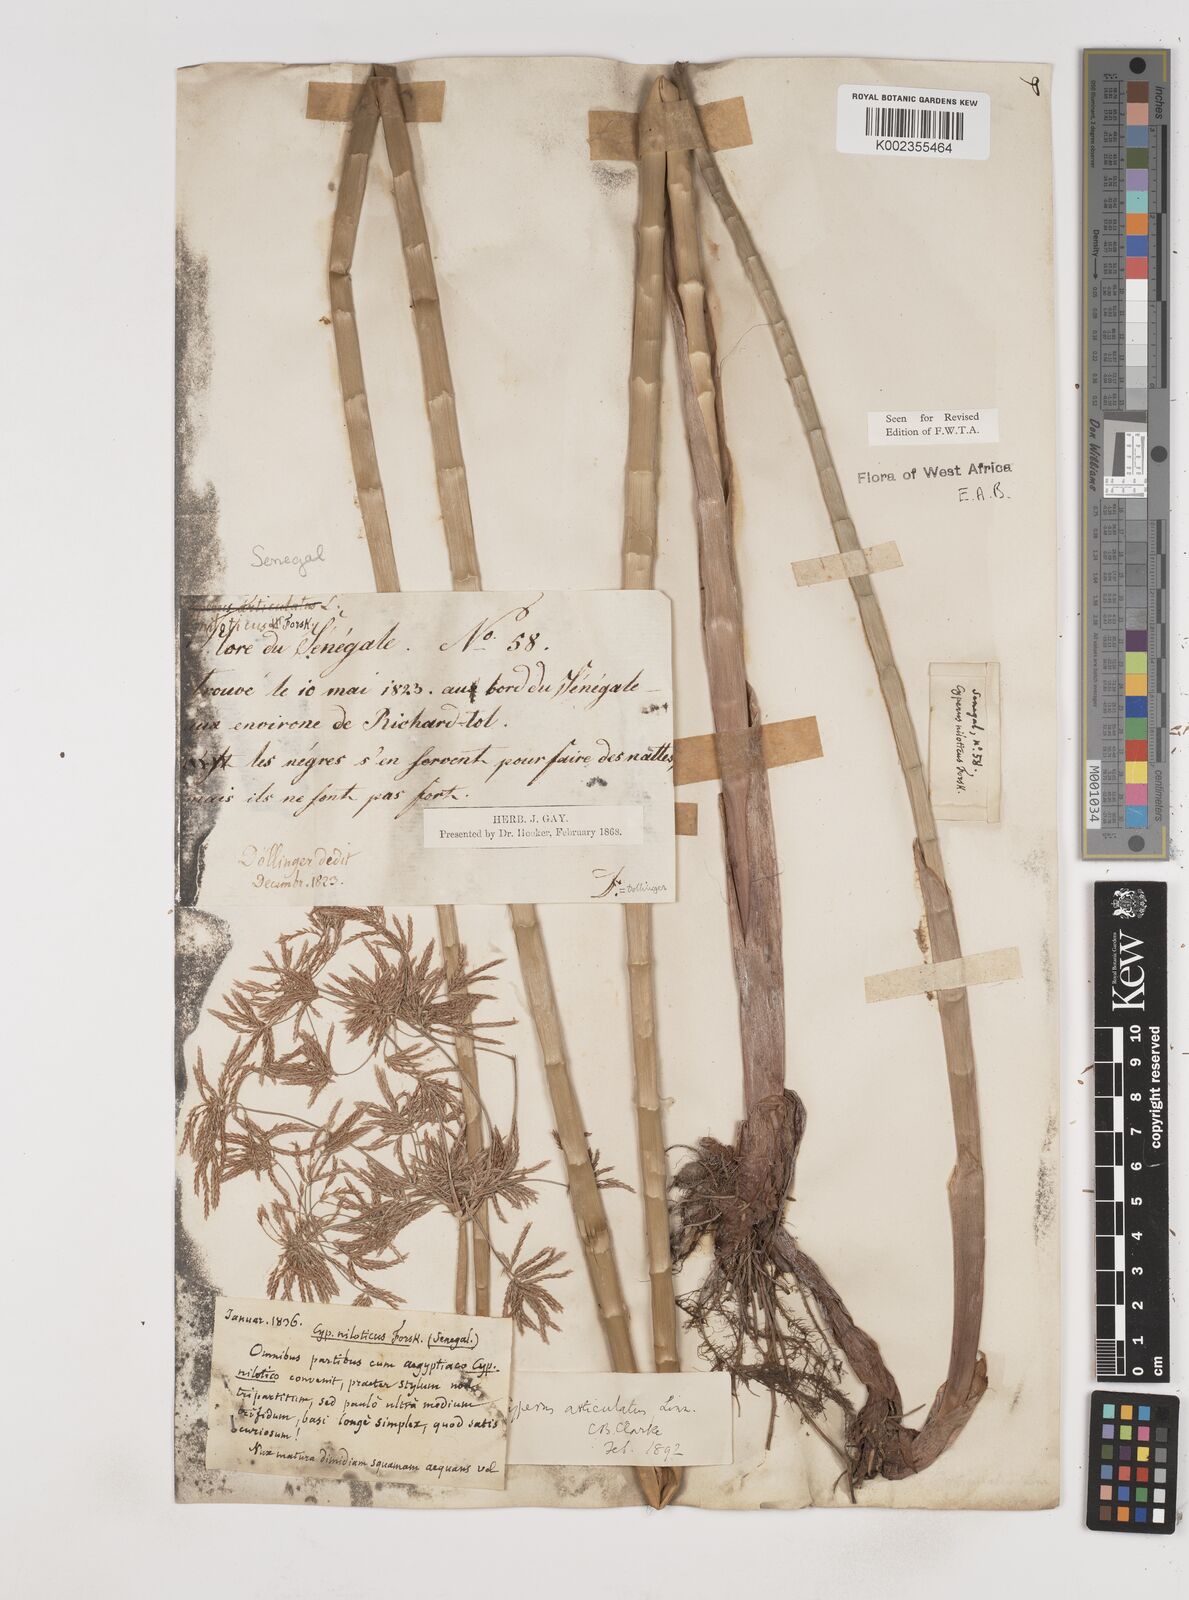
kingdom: Plantae
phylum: Tracheophyta
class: Liliopsida
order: Poales
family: Cyperaceae
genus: Cyperus
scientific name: Cyperus articulatus
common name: Jointed flatsedge
